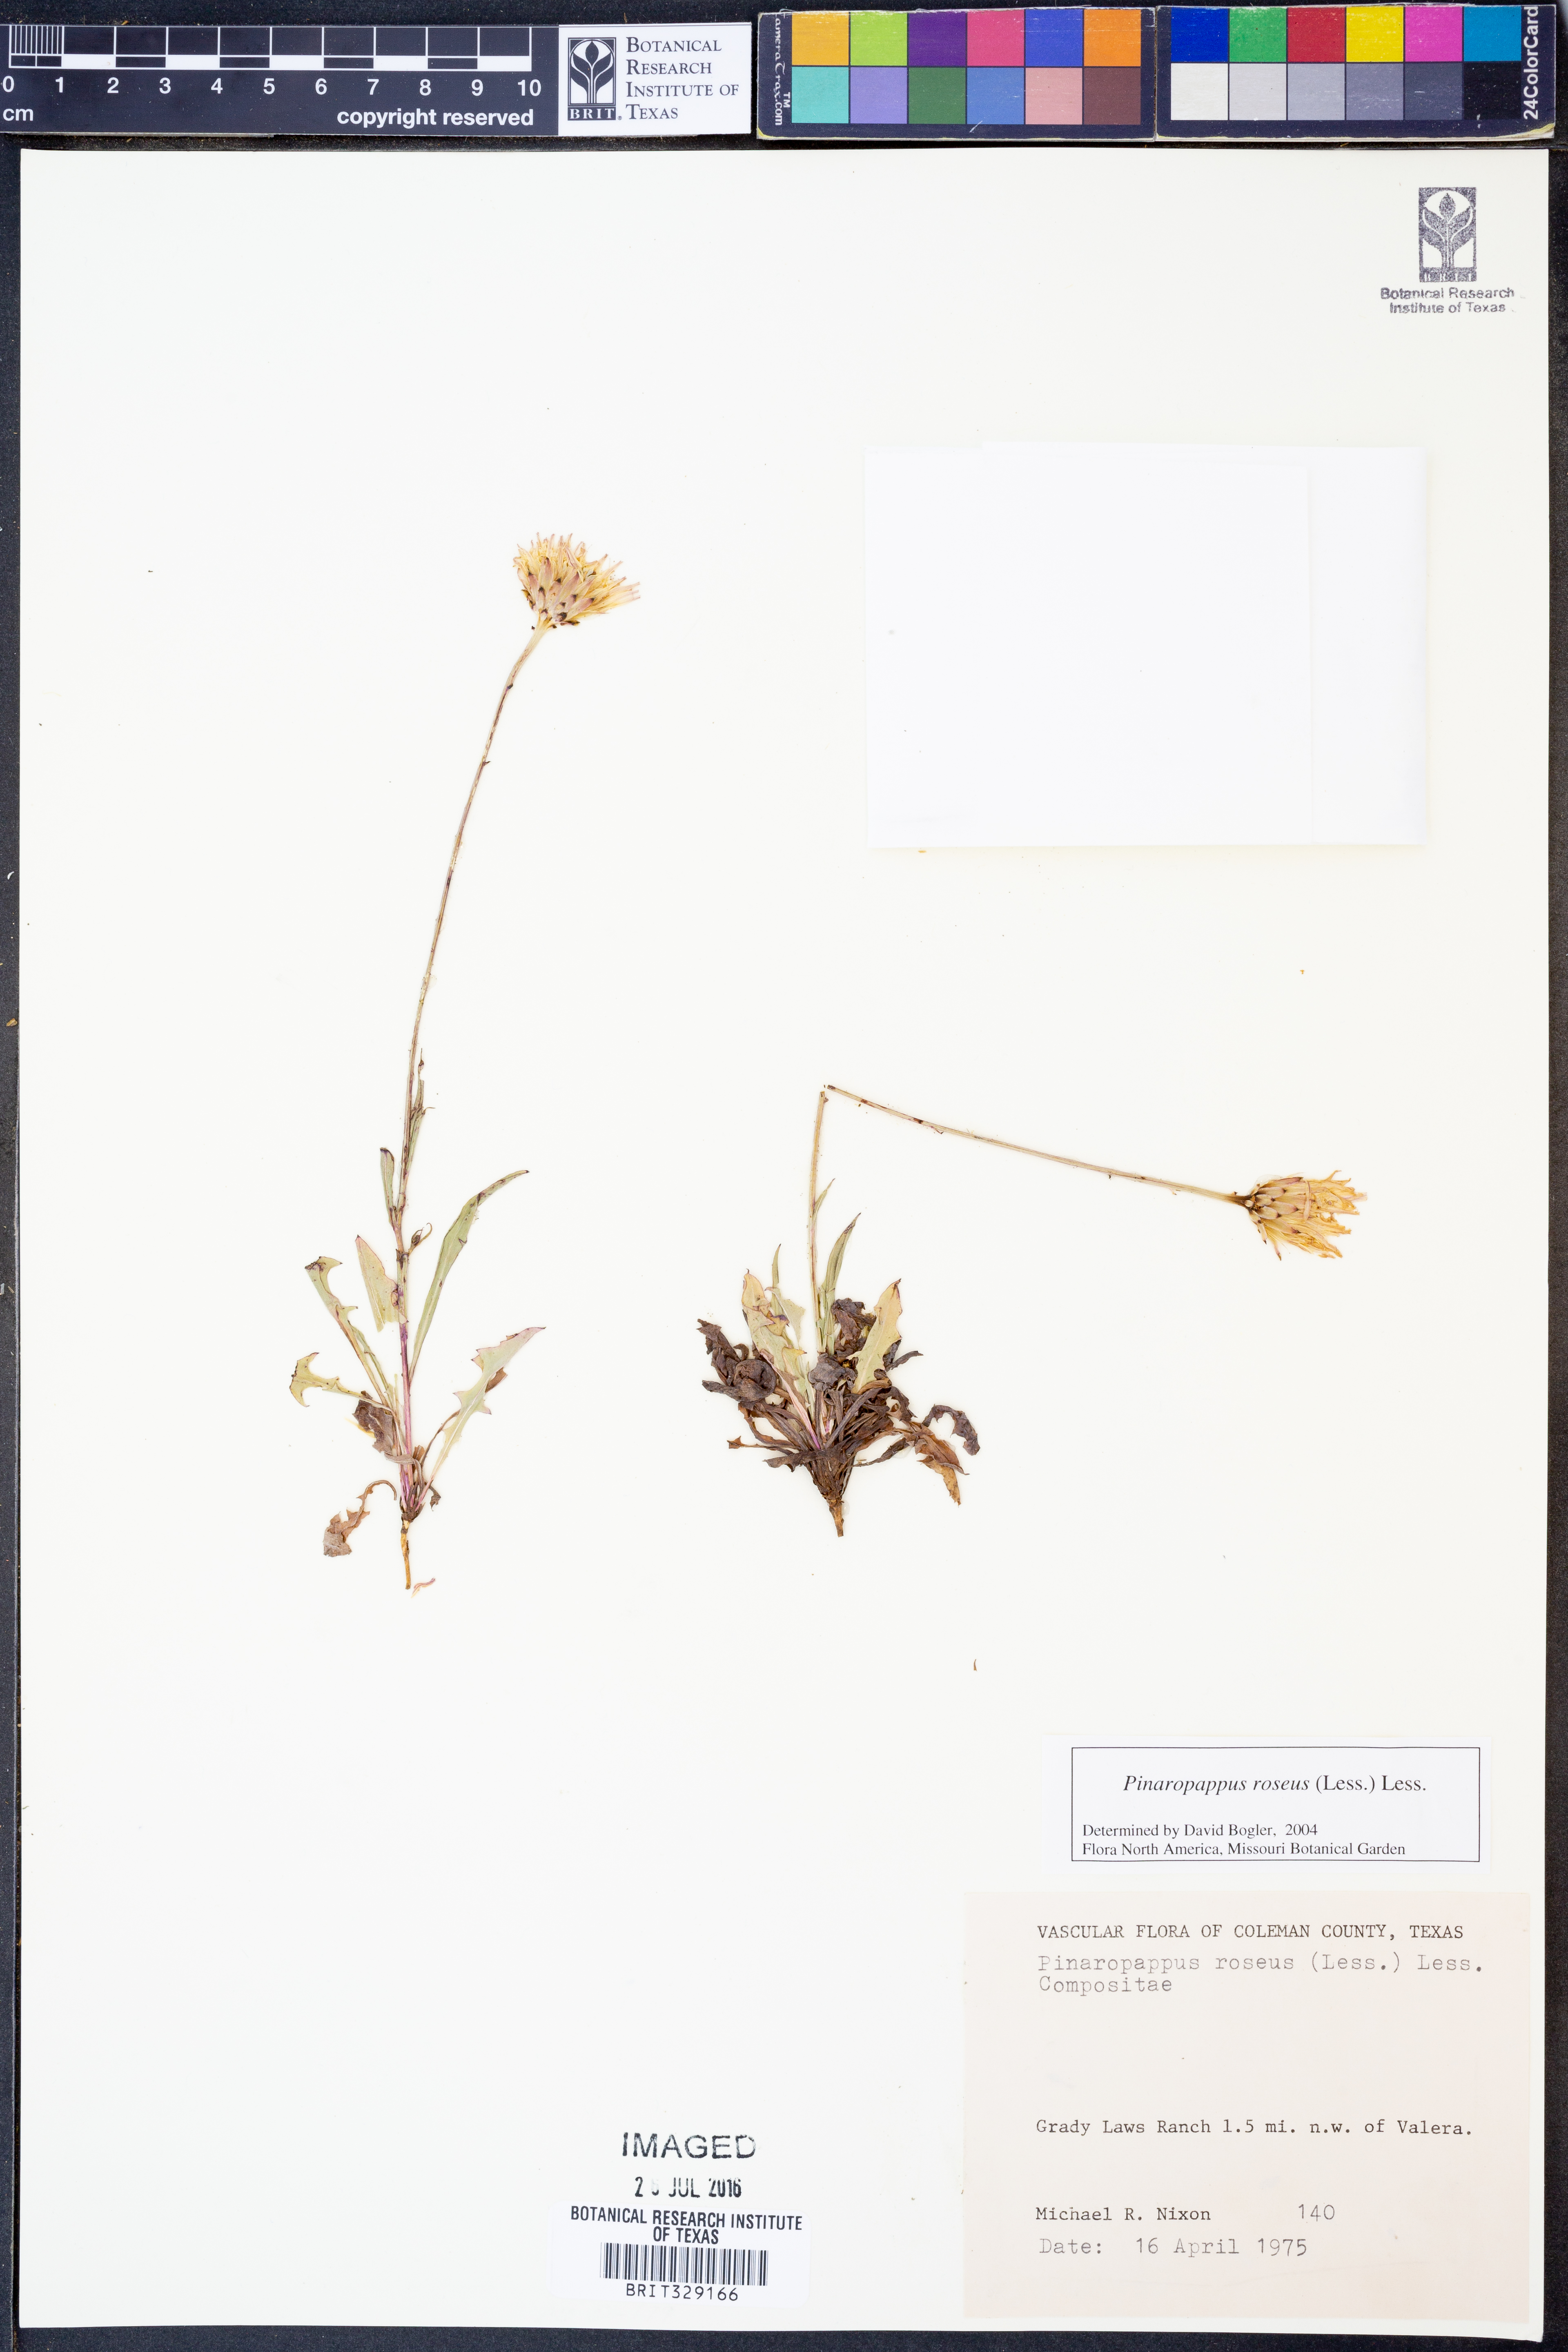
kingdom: Plantae
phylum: Tracheophyta
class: Magnoliopsida
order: Asterales
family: Asteraceae
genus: Pinaropappus
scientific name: Pinaropappus roseus
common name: Rock-lettuce
